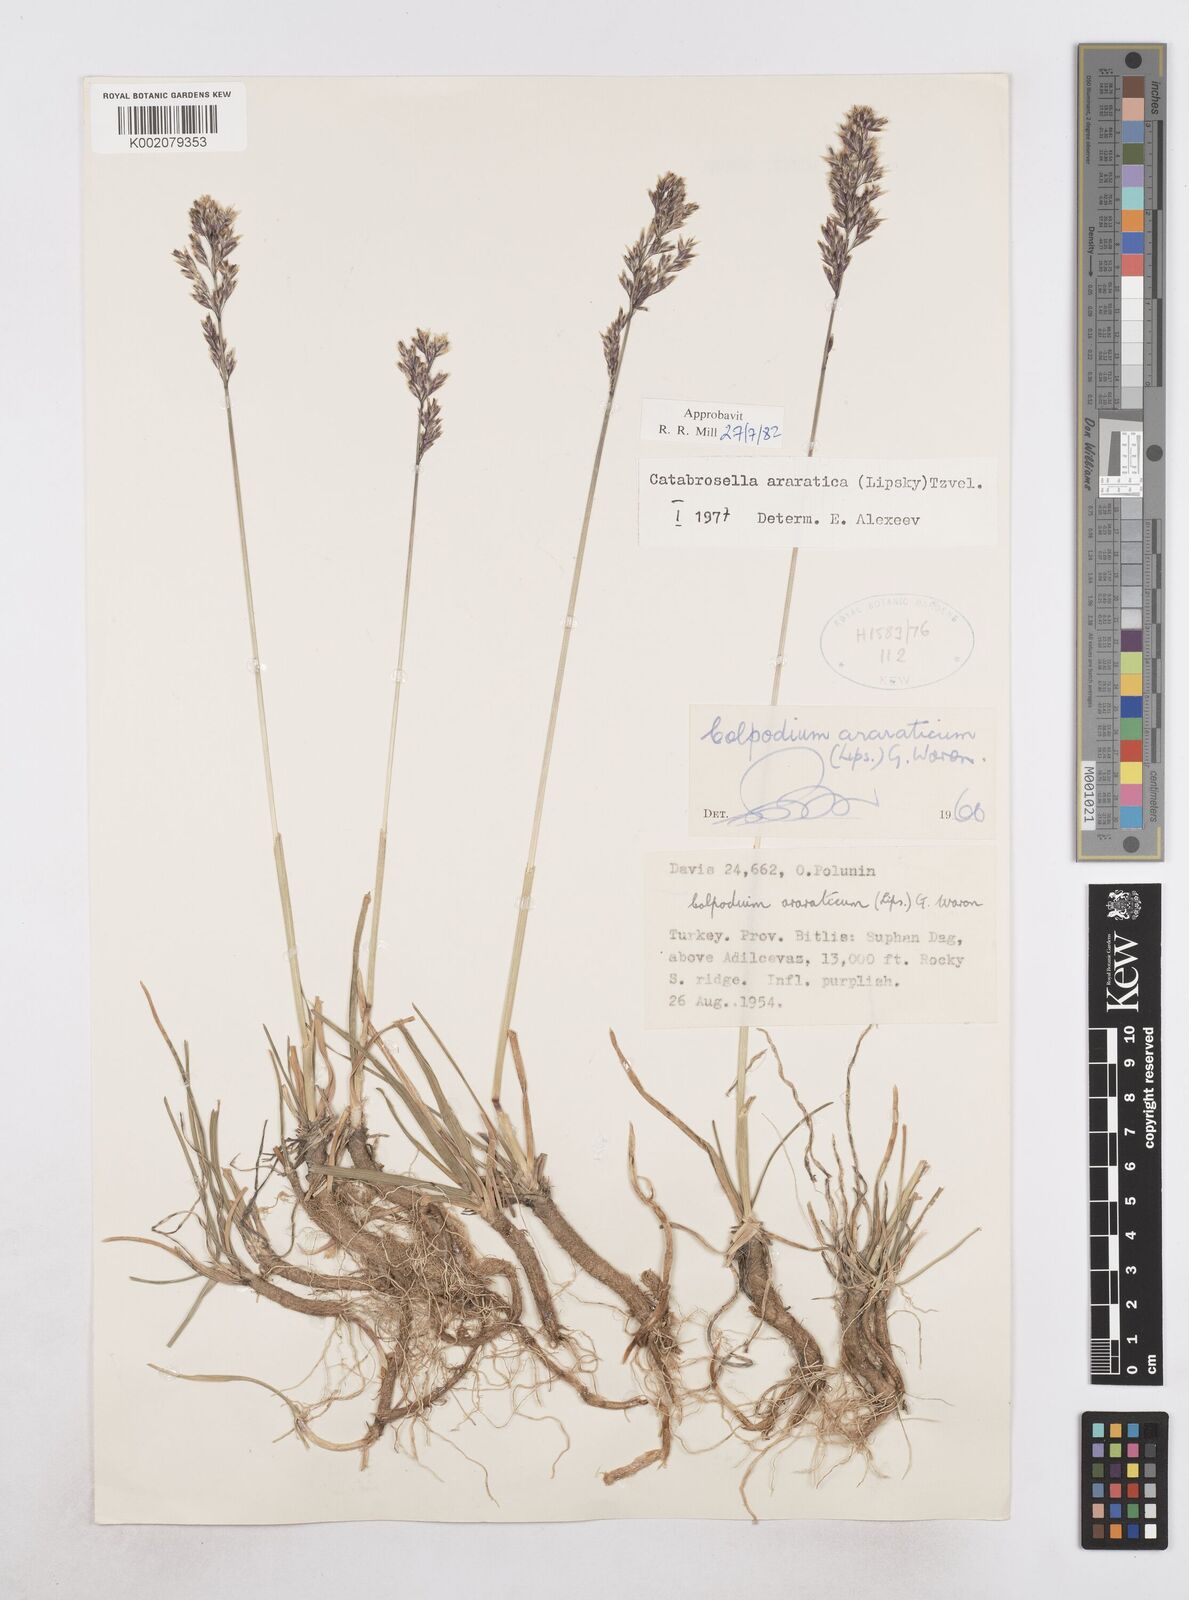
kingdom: Plantae
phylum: Tracheophyta
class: Liliopsida
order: Poales
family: Poaceae
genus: Hyalopodium
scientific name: Hyalopodium araraticum
